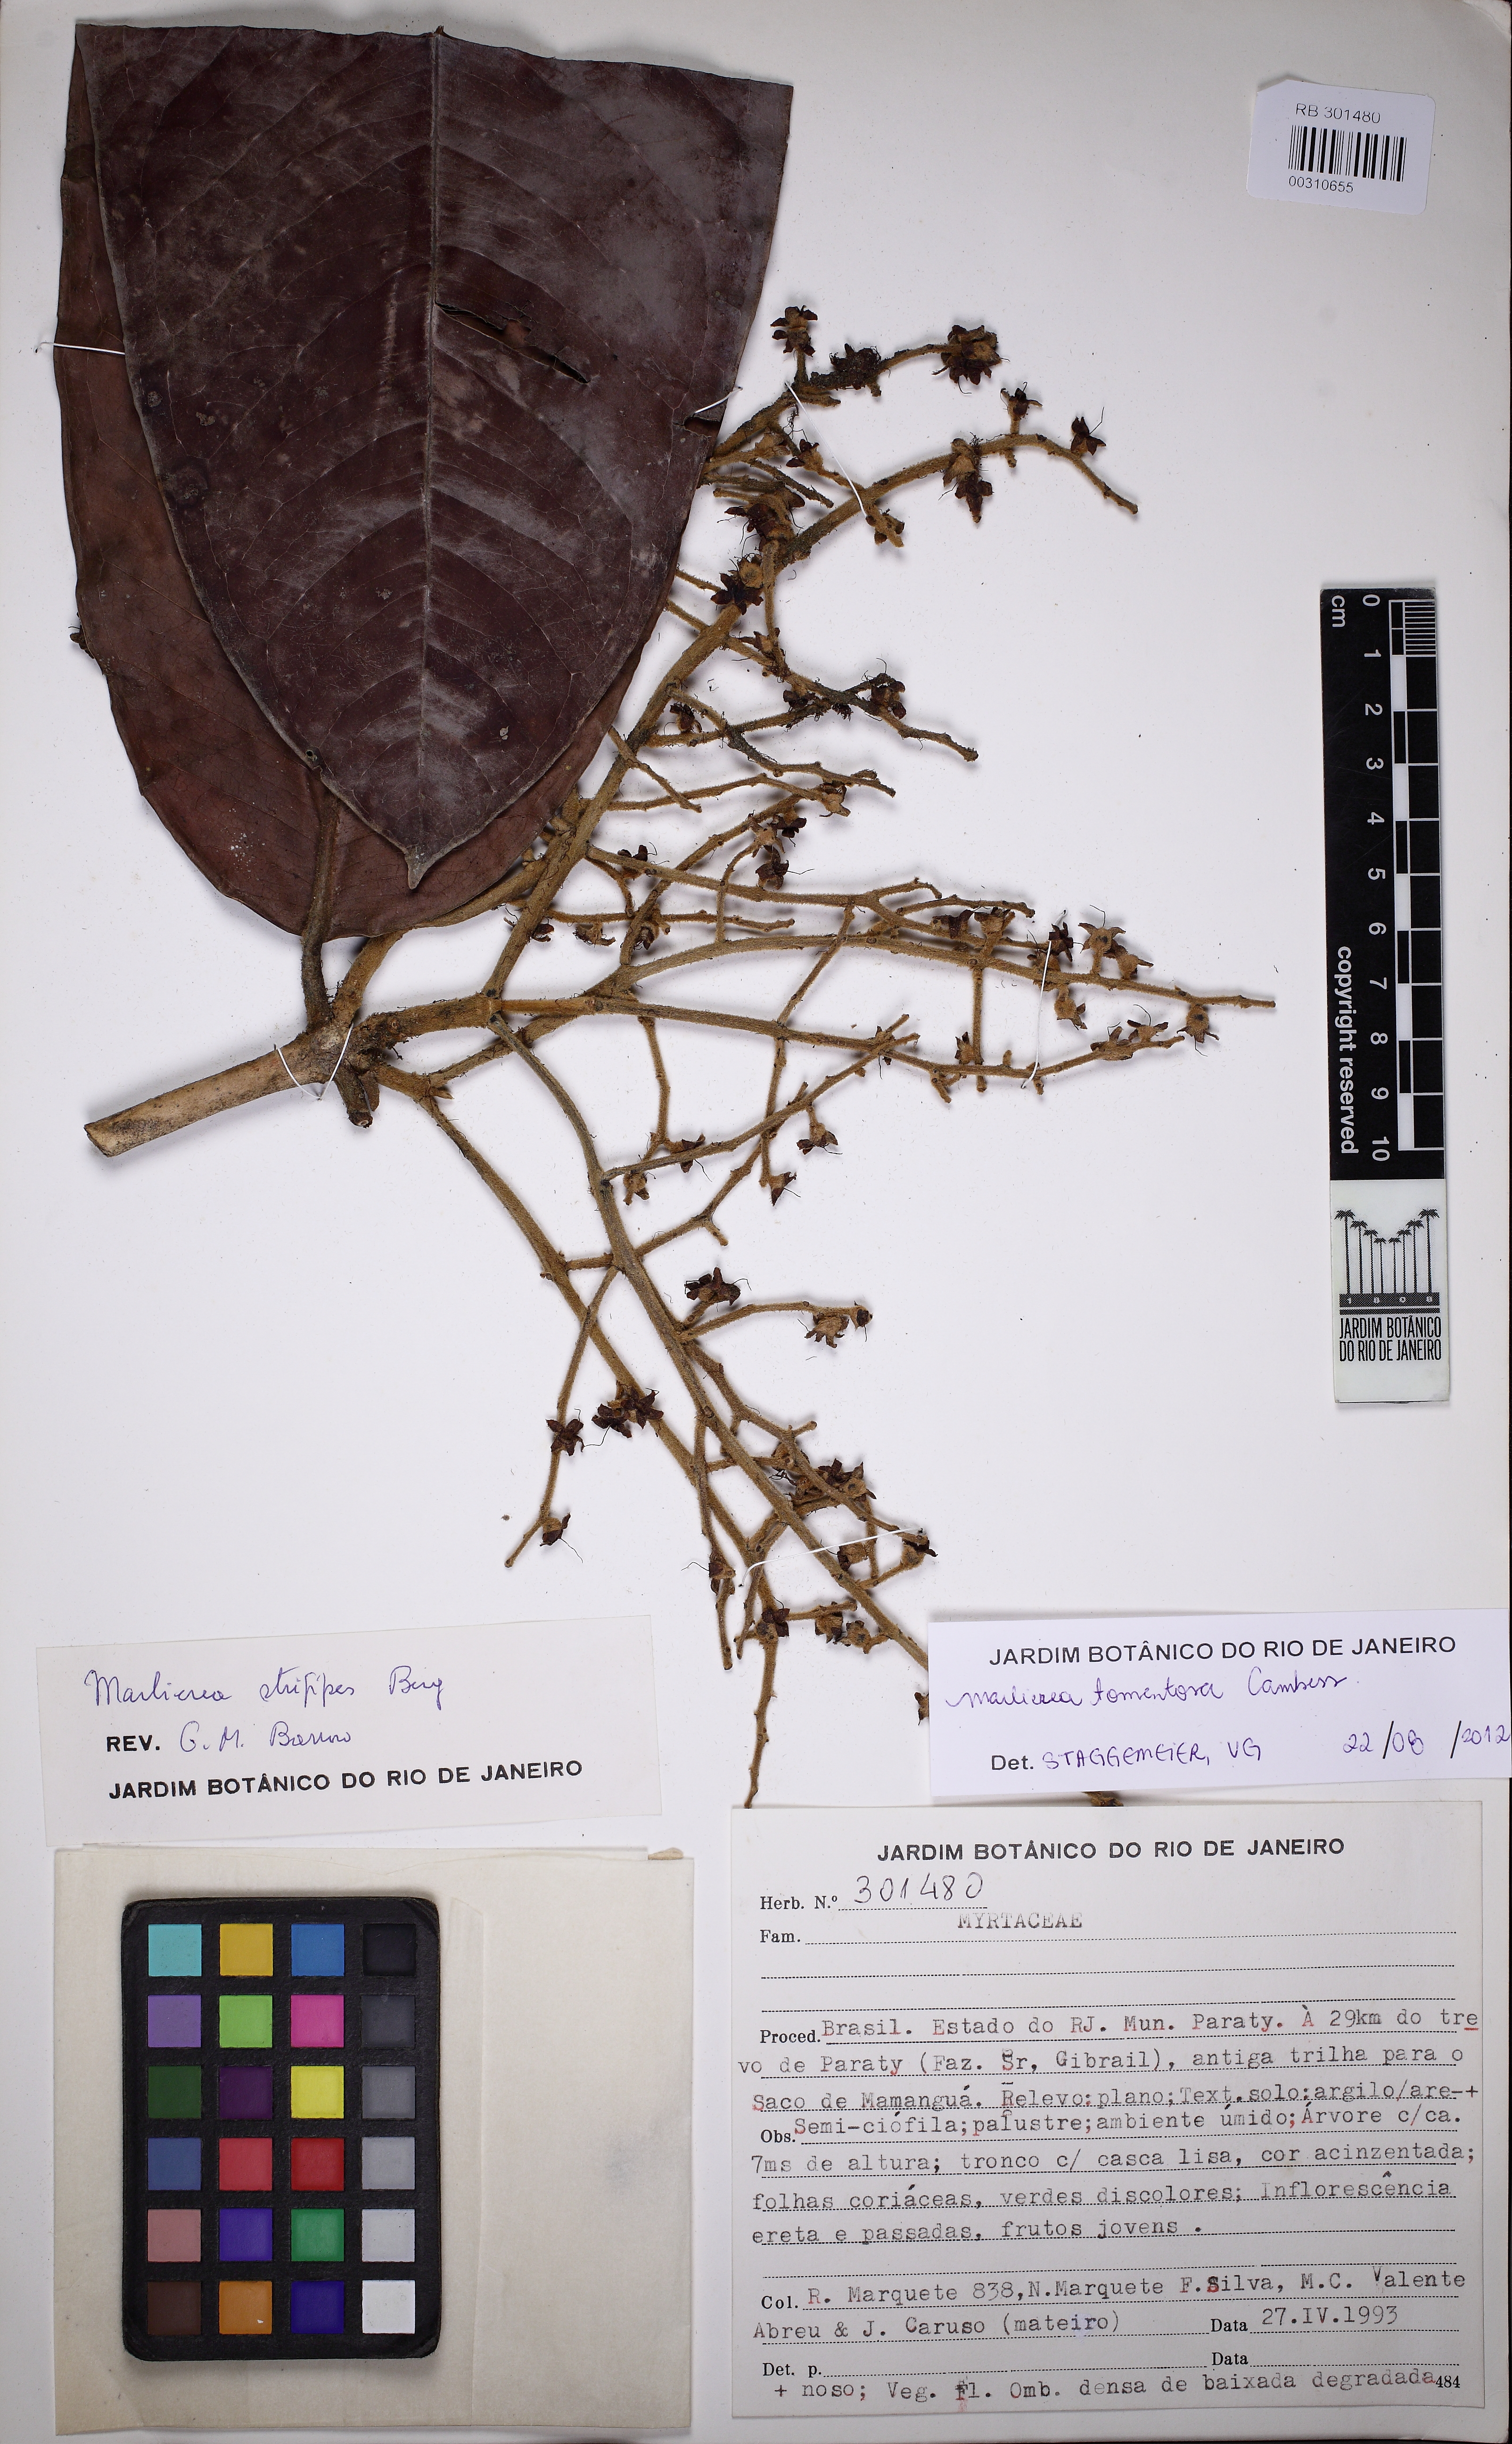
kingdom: Plantae
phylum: Tracheophyta
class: Magnoliopsida
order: Myrtales
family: Myrtaceae
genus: Myrcia
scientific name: Myrcia neotomentosa
